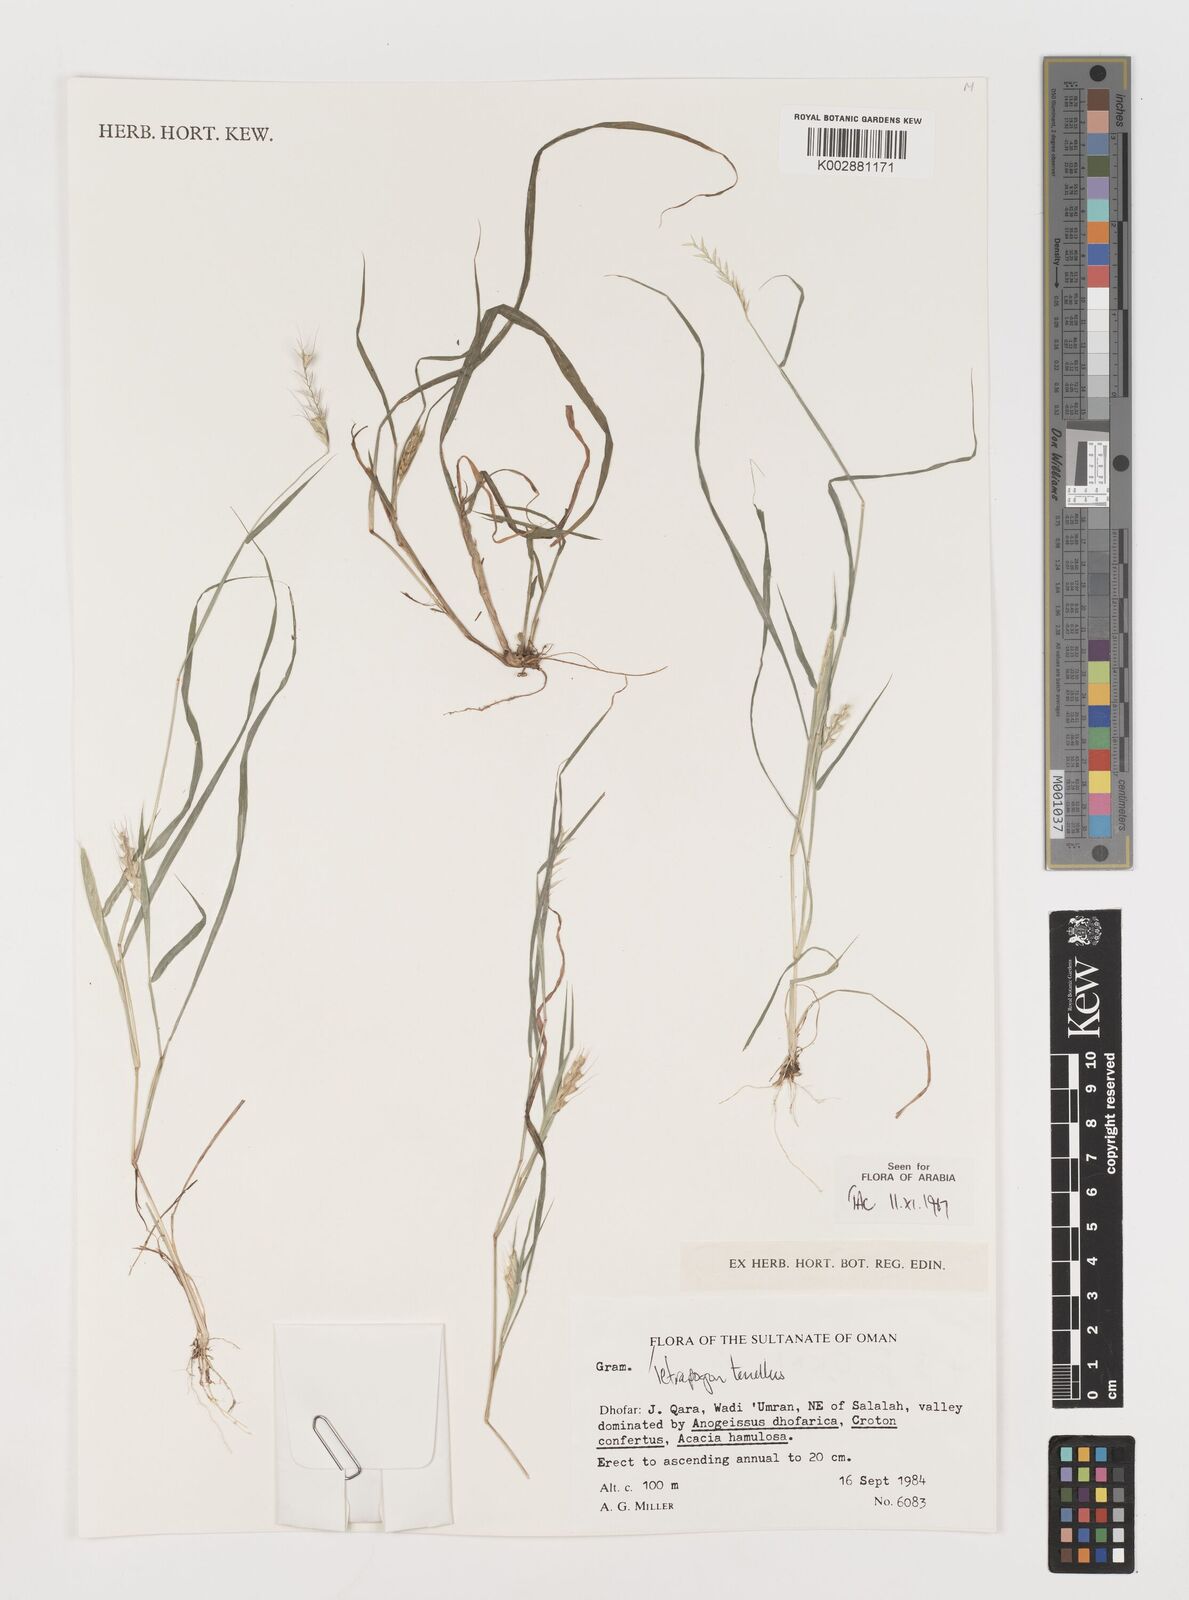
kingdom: Plantae
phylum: Tracheophyta
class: Liliopsida
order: Poales
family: Poaceae
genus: Tetrapogon
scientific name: Tetrapogon tenellus
